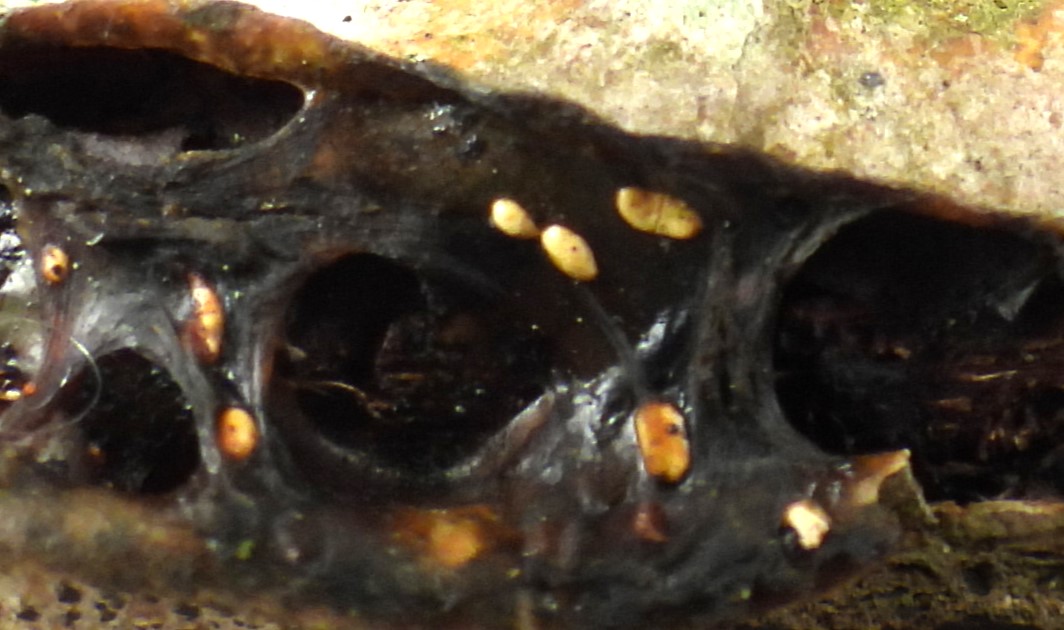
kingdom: Fungi
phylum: Basidiomycota
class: Agaricomycetes
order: Auriculariales
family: Hyaloriaceae
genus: Myxarium
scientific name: Myxarium
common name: bævretop
